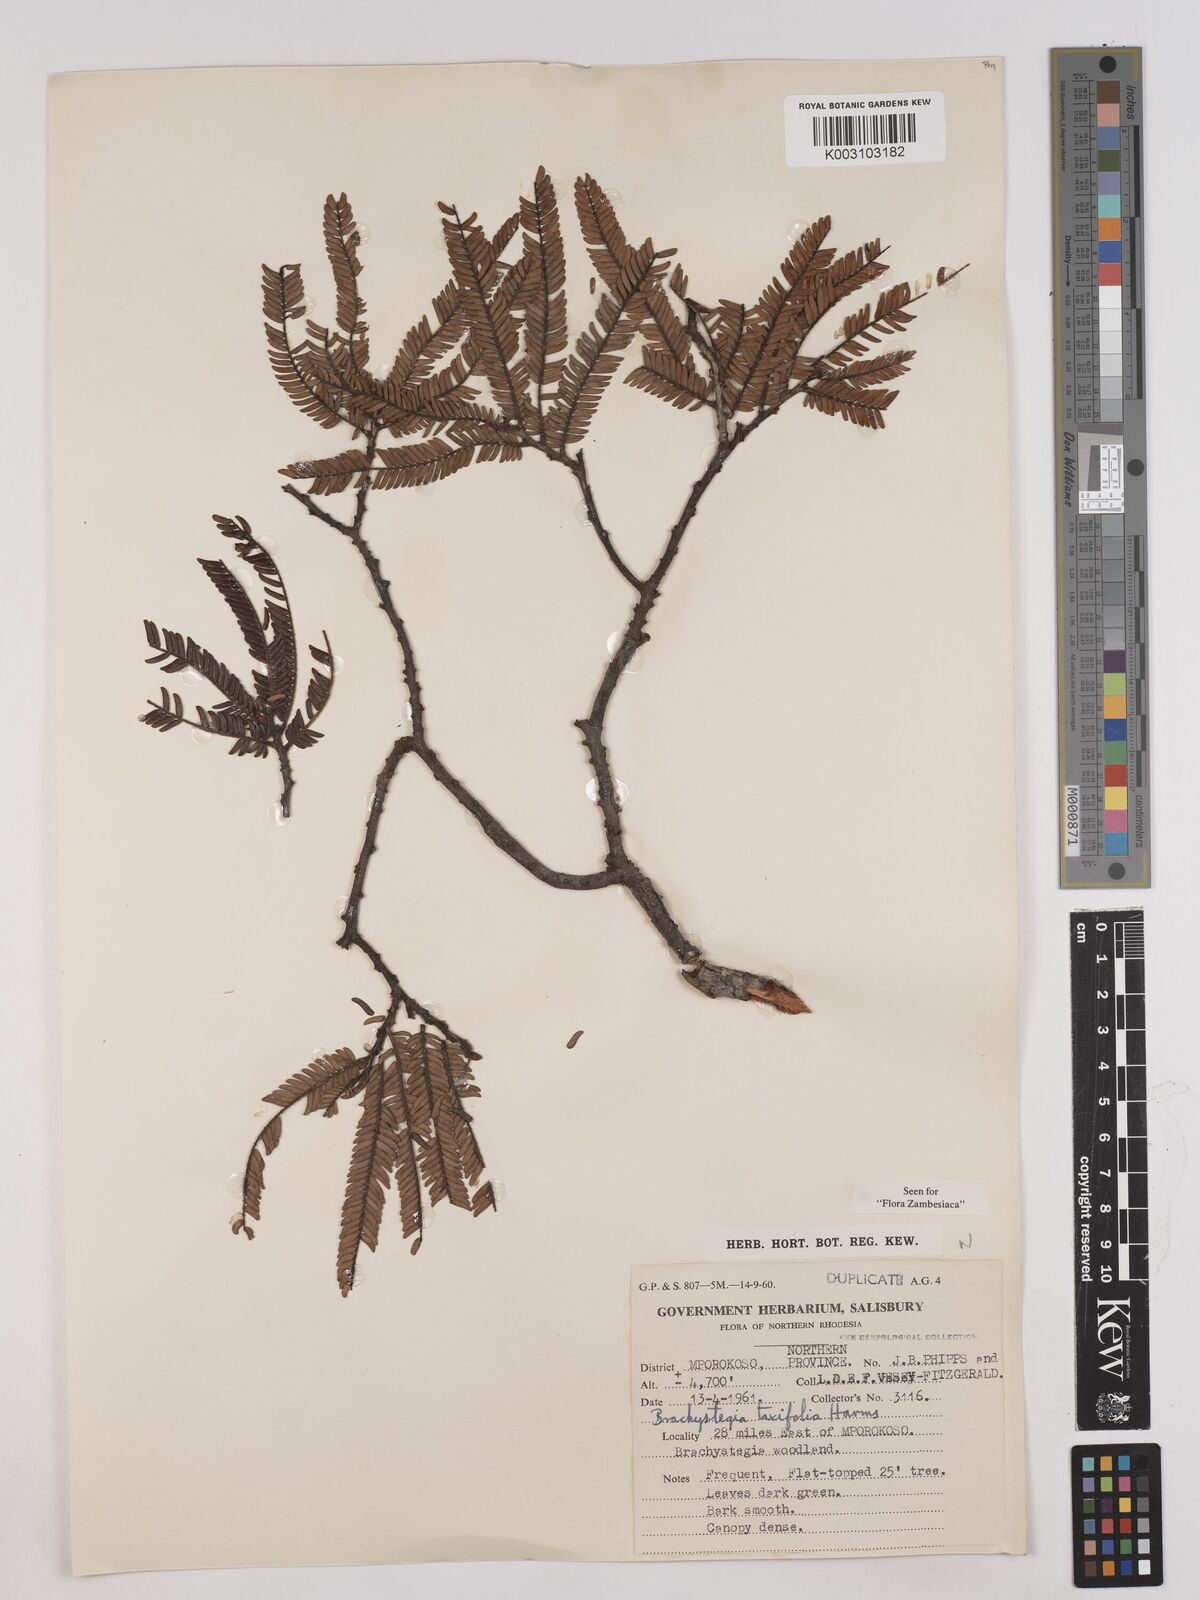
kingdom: Plantae
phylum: Tracheophyta
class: Magnoliopsida
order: Fabales
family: Fabaceae
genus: Brachystegia
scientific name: Brachystegia taxifolia
